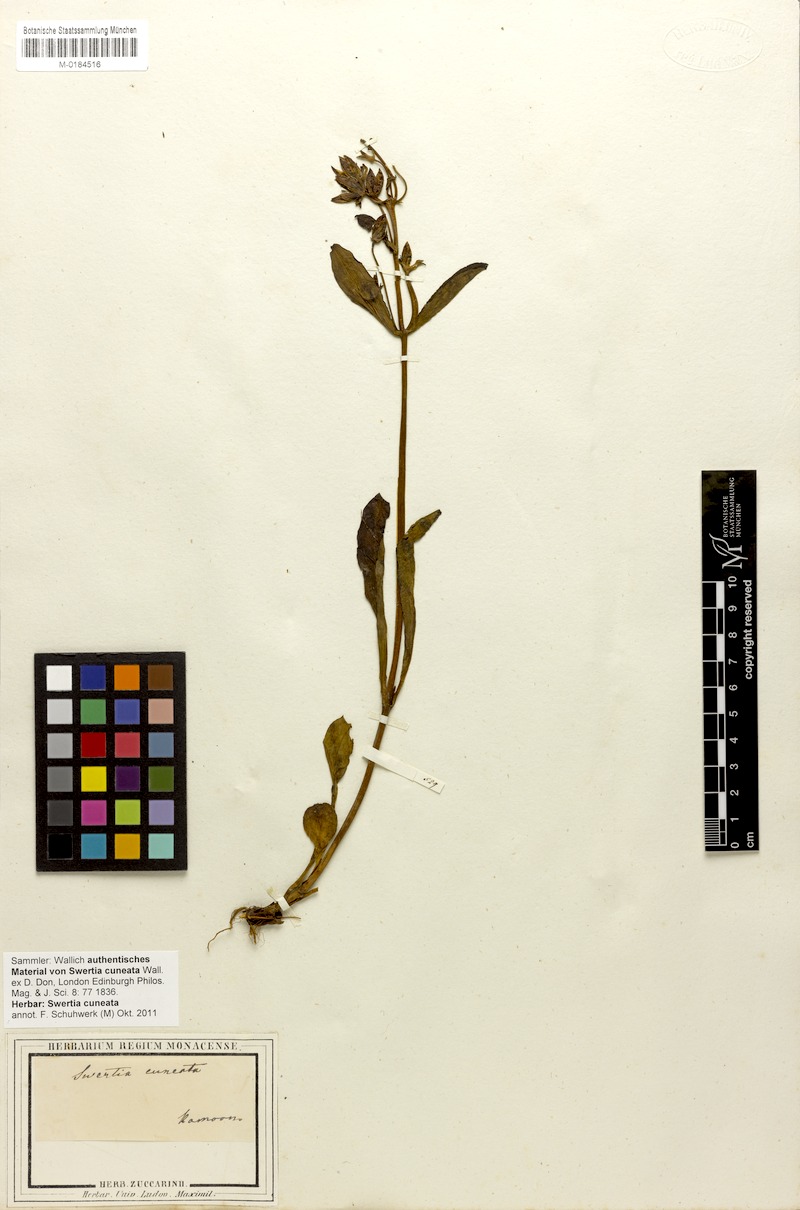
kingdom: Plantae
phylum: Tracheophyta
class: Magnoliopsida
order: Gentianales
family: Gentianaceae
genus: Swertia
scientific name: Swertia cuneata
